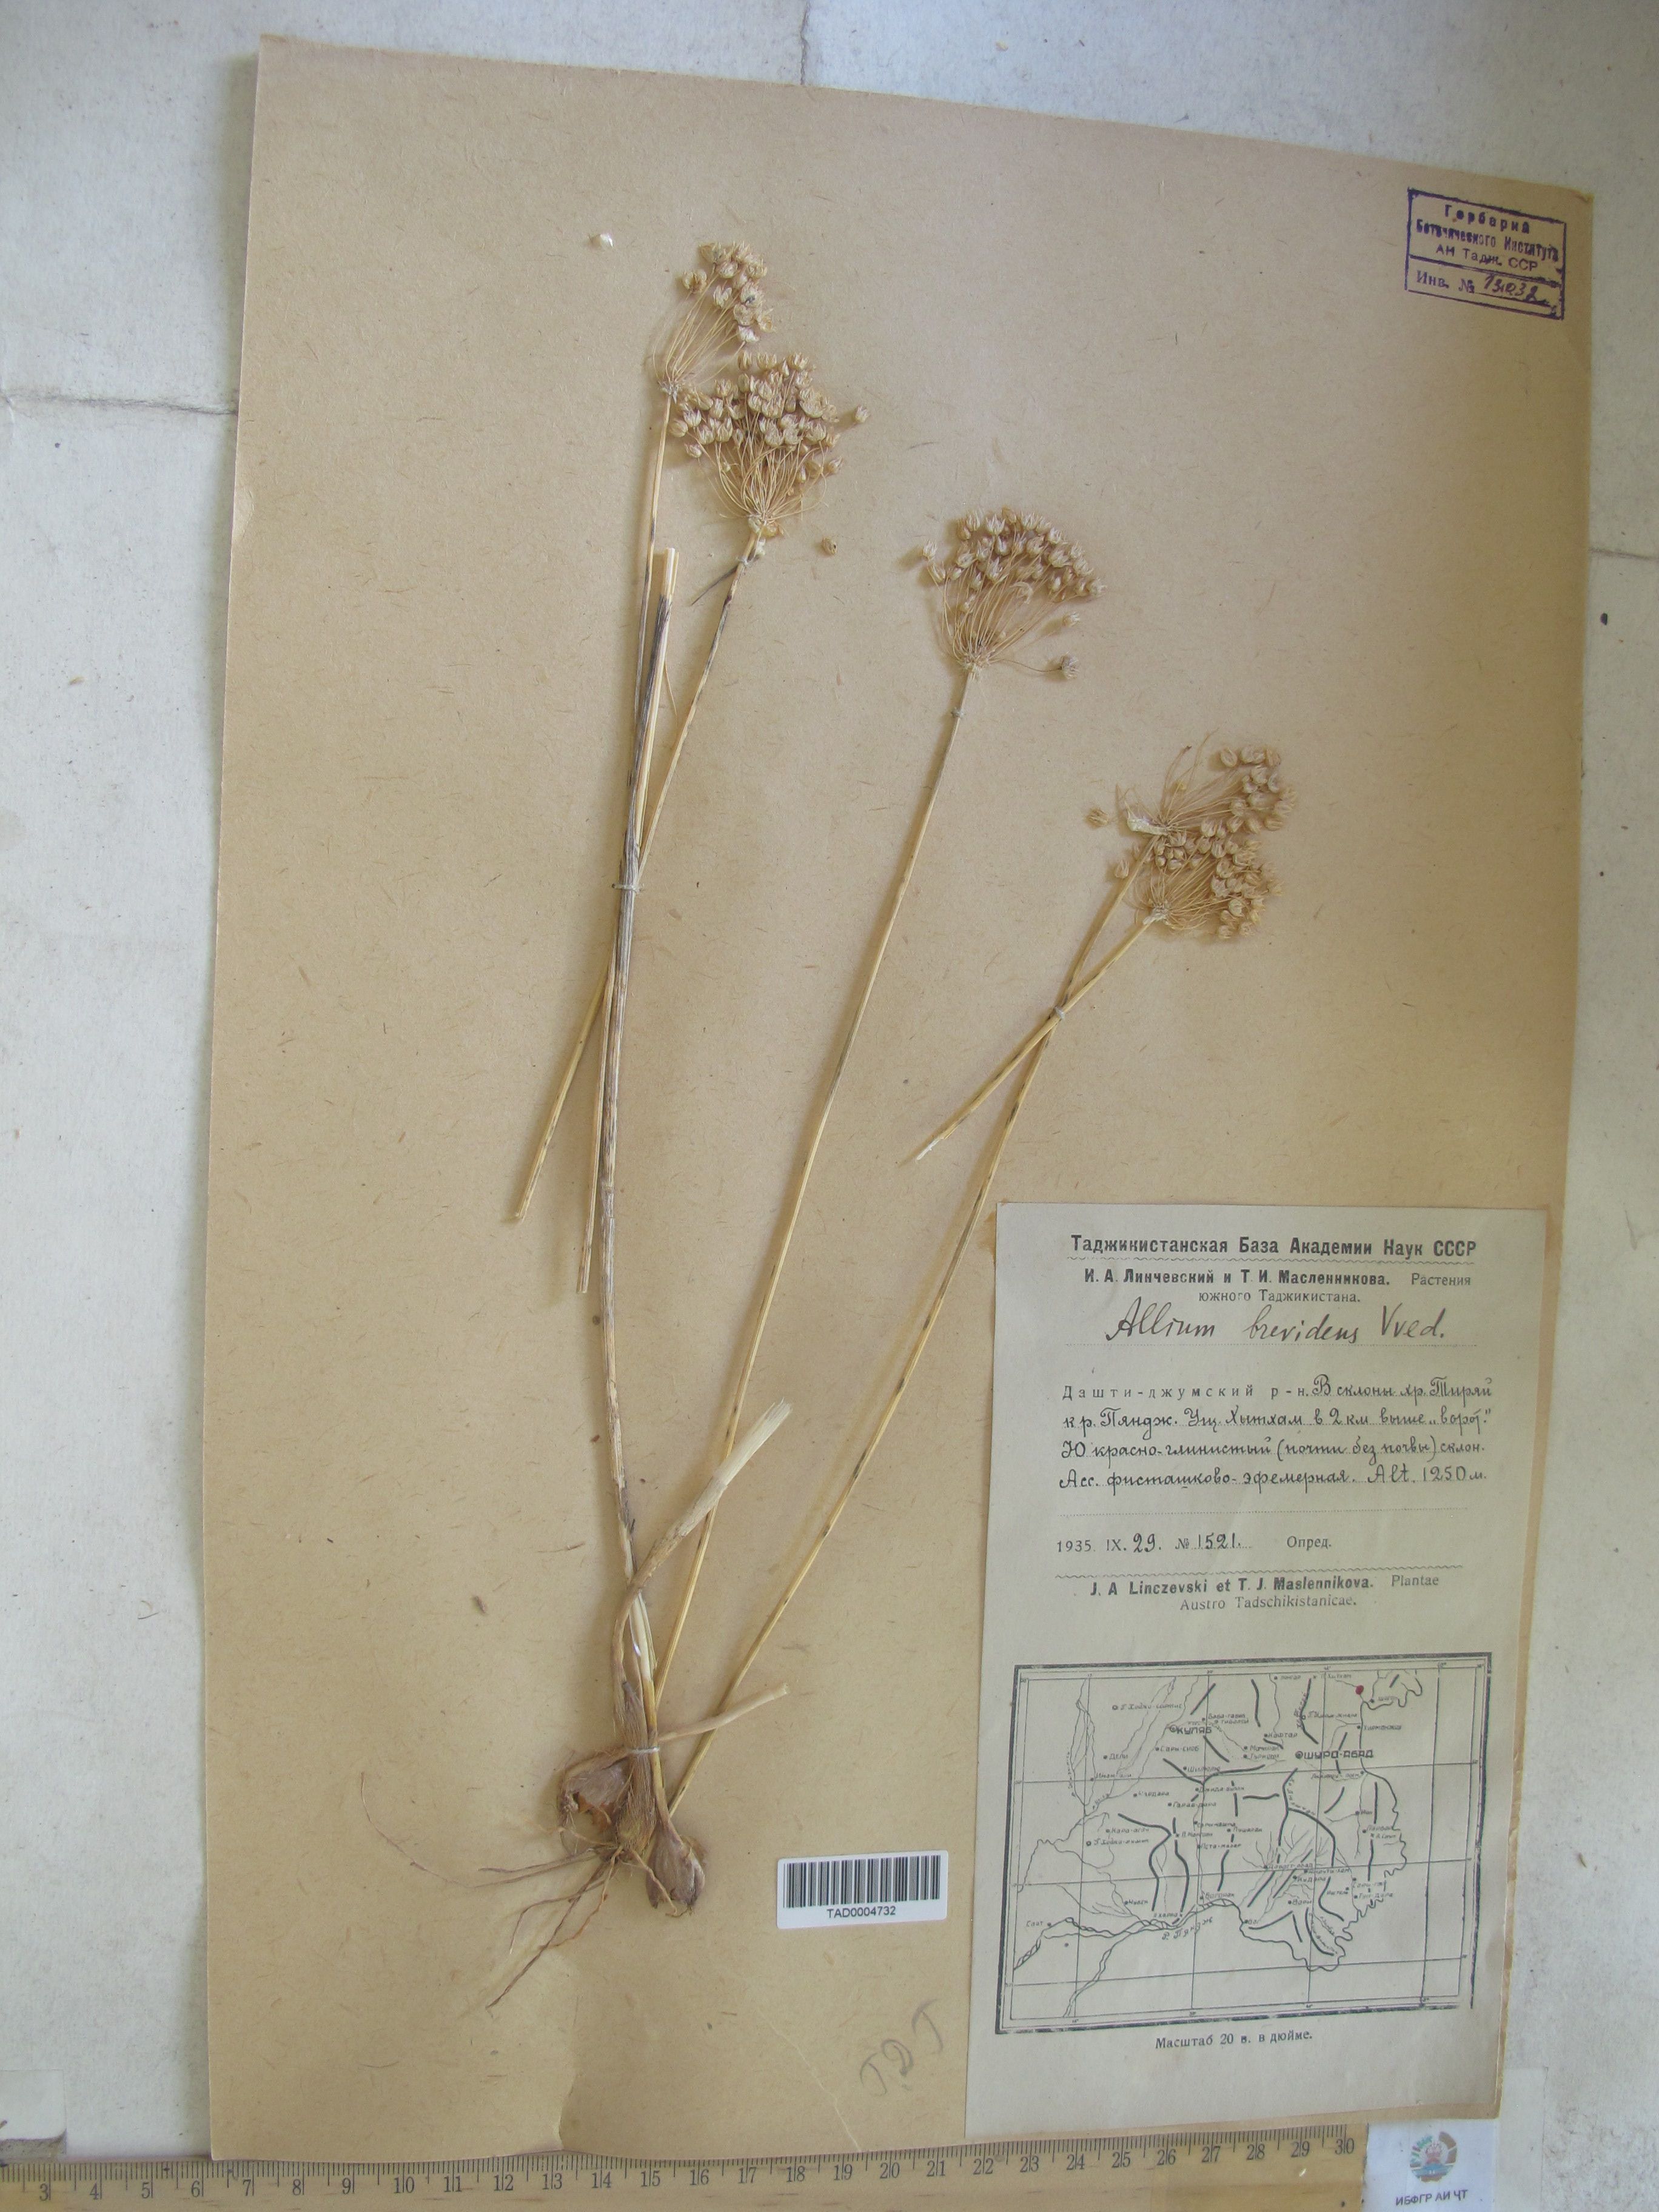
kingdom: Plantae
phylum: Tracheophyta
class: Liliopsida
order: Asparagales
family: Amaryllidaceae
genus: Allium
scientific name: Allium brevidens
